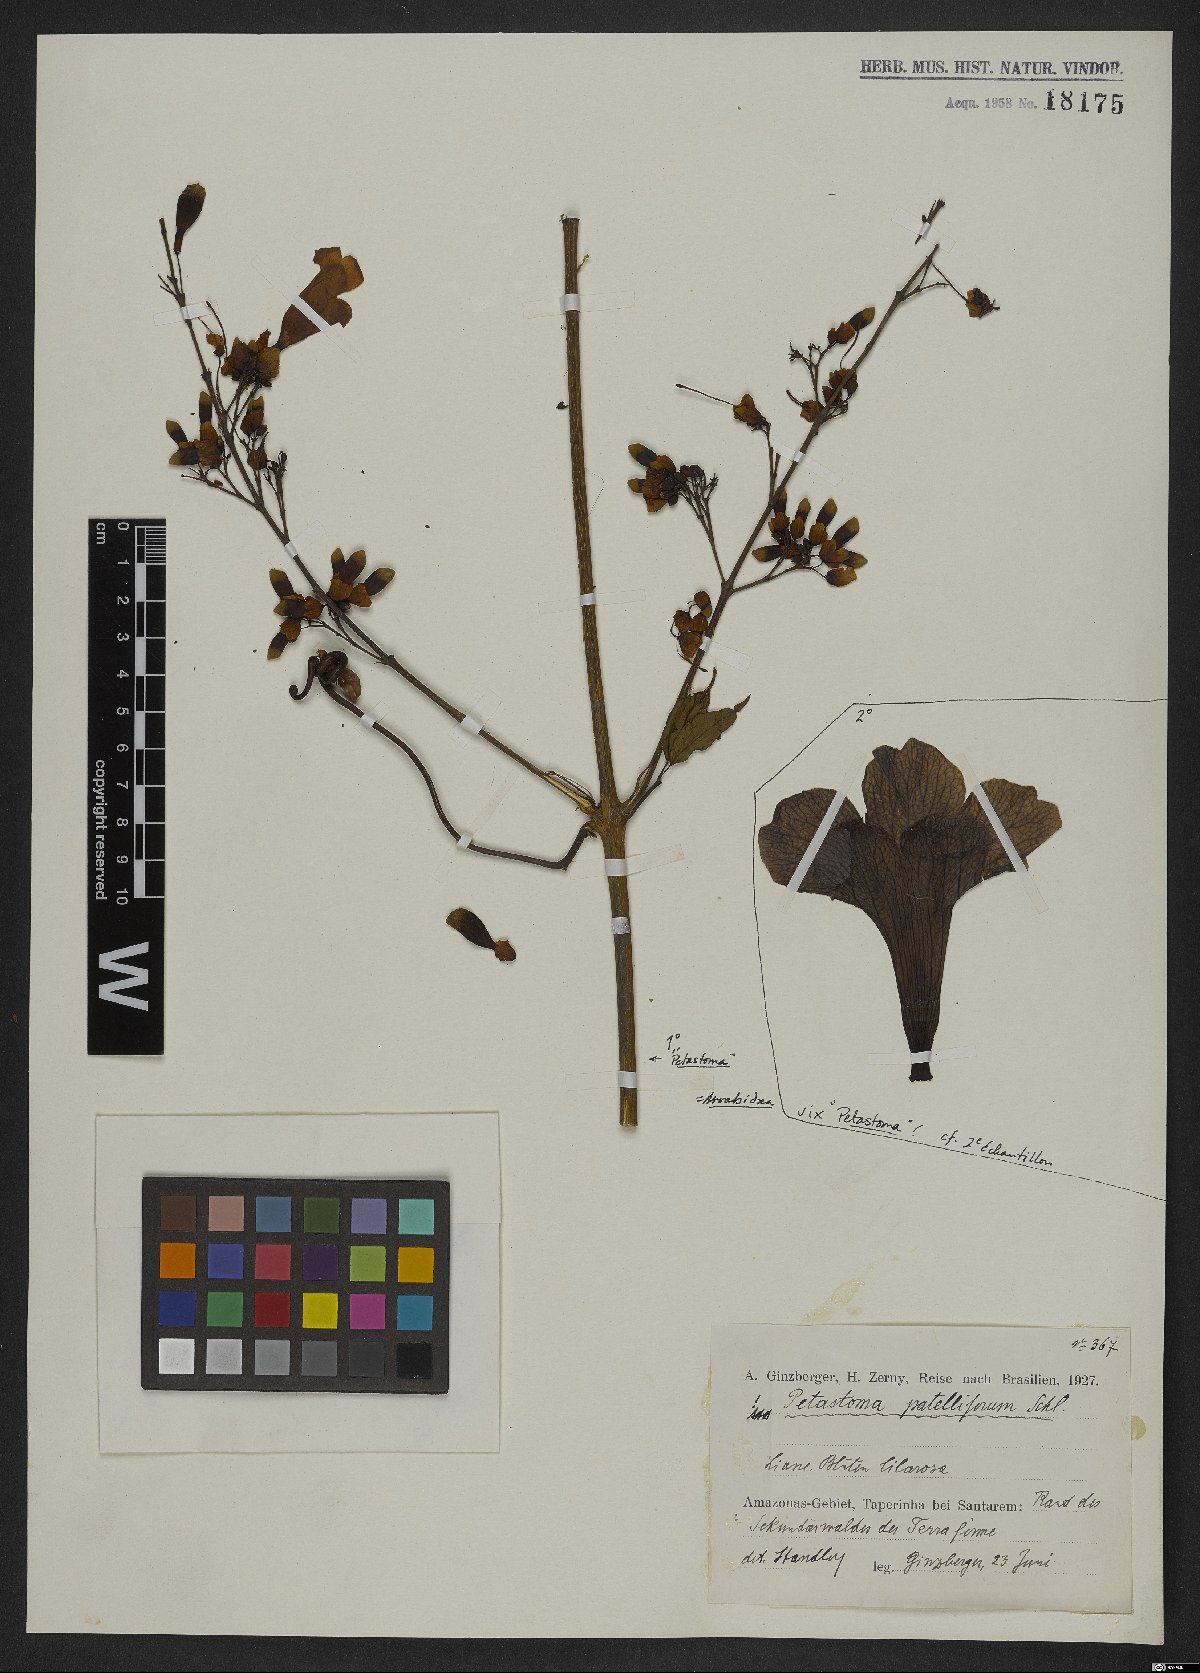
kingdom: Plantae
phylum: Tracheophyta
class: Magnoliopsida
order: Lamiales
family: Bignoniaceae
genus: Fridericia
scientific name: Fridericia patellifera
